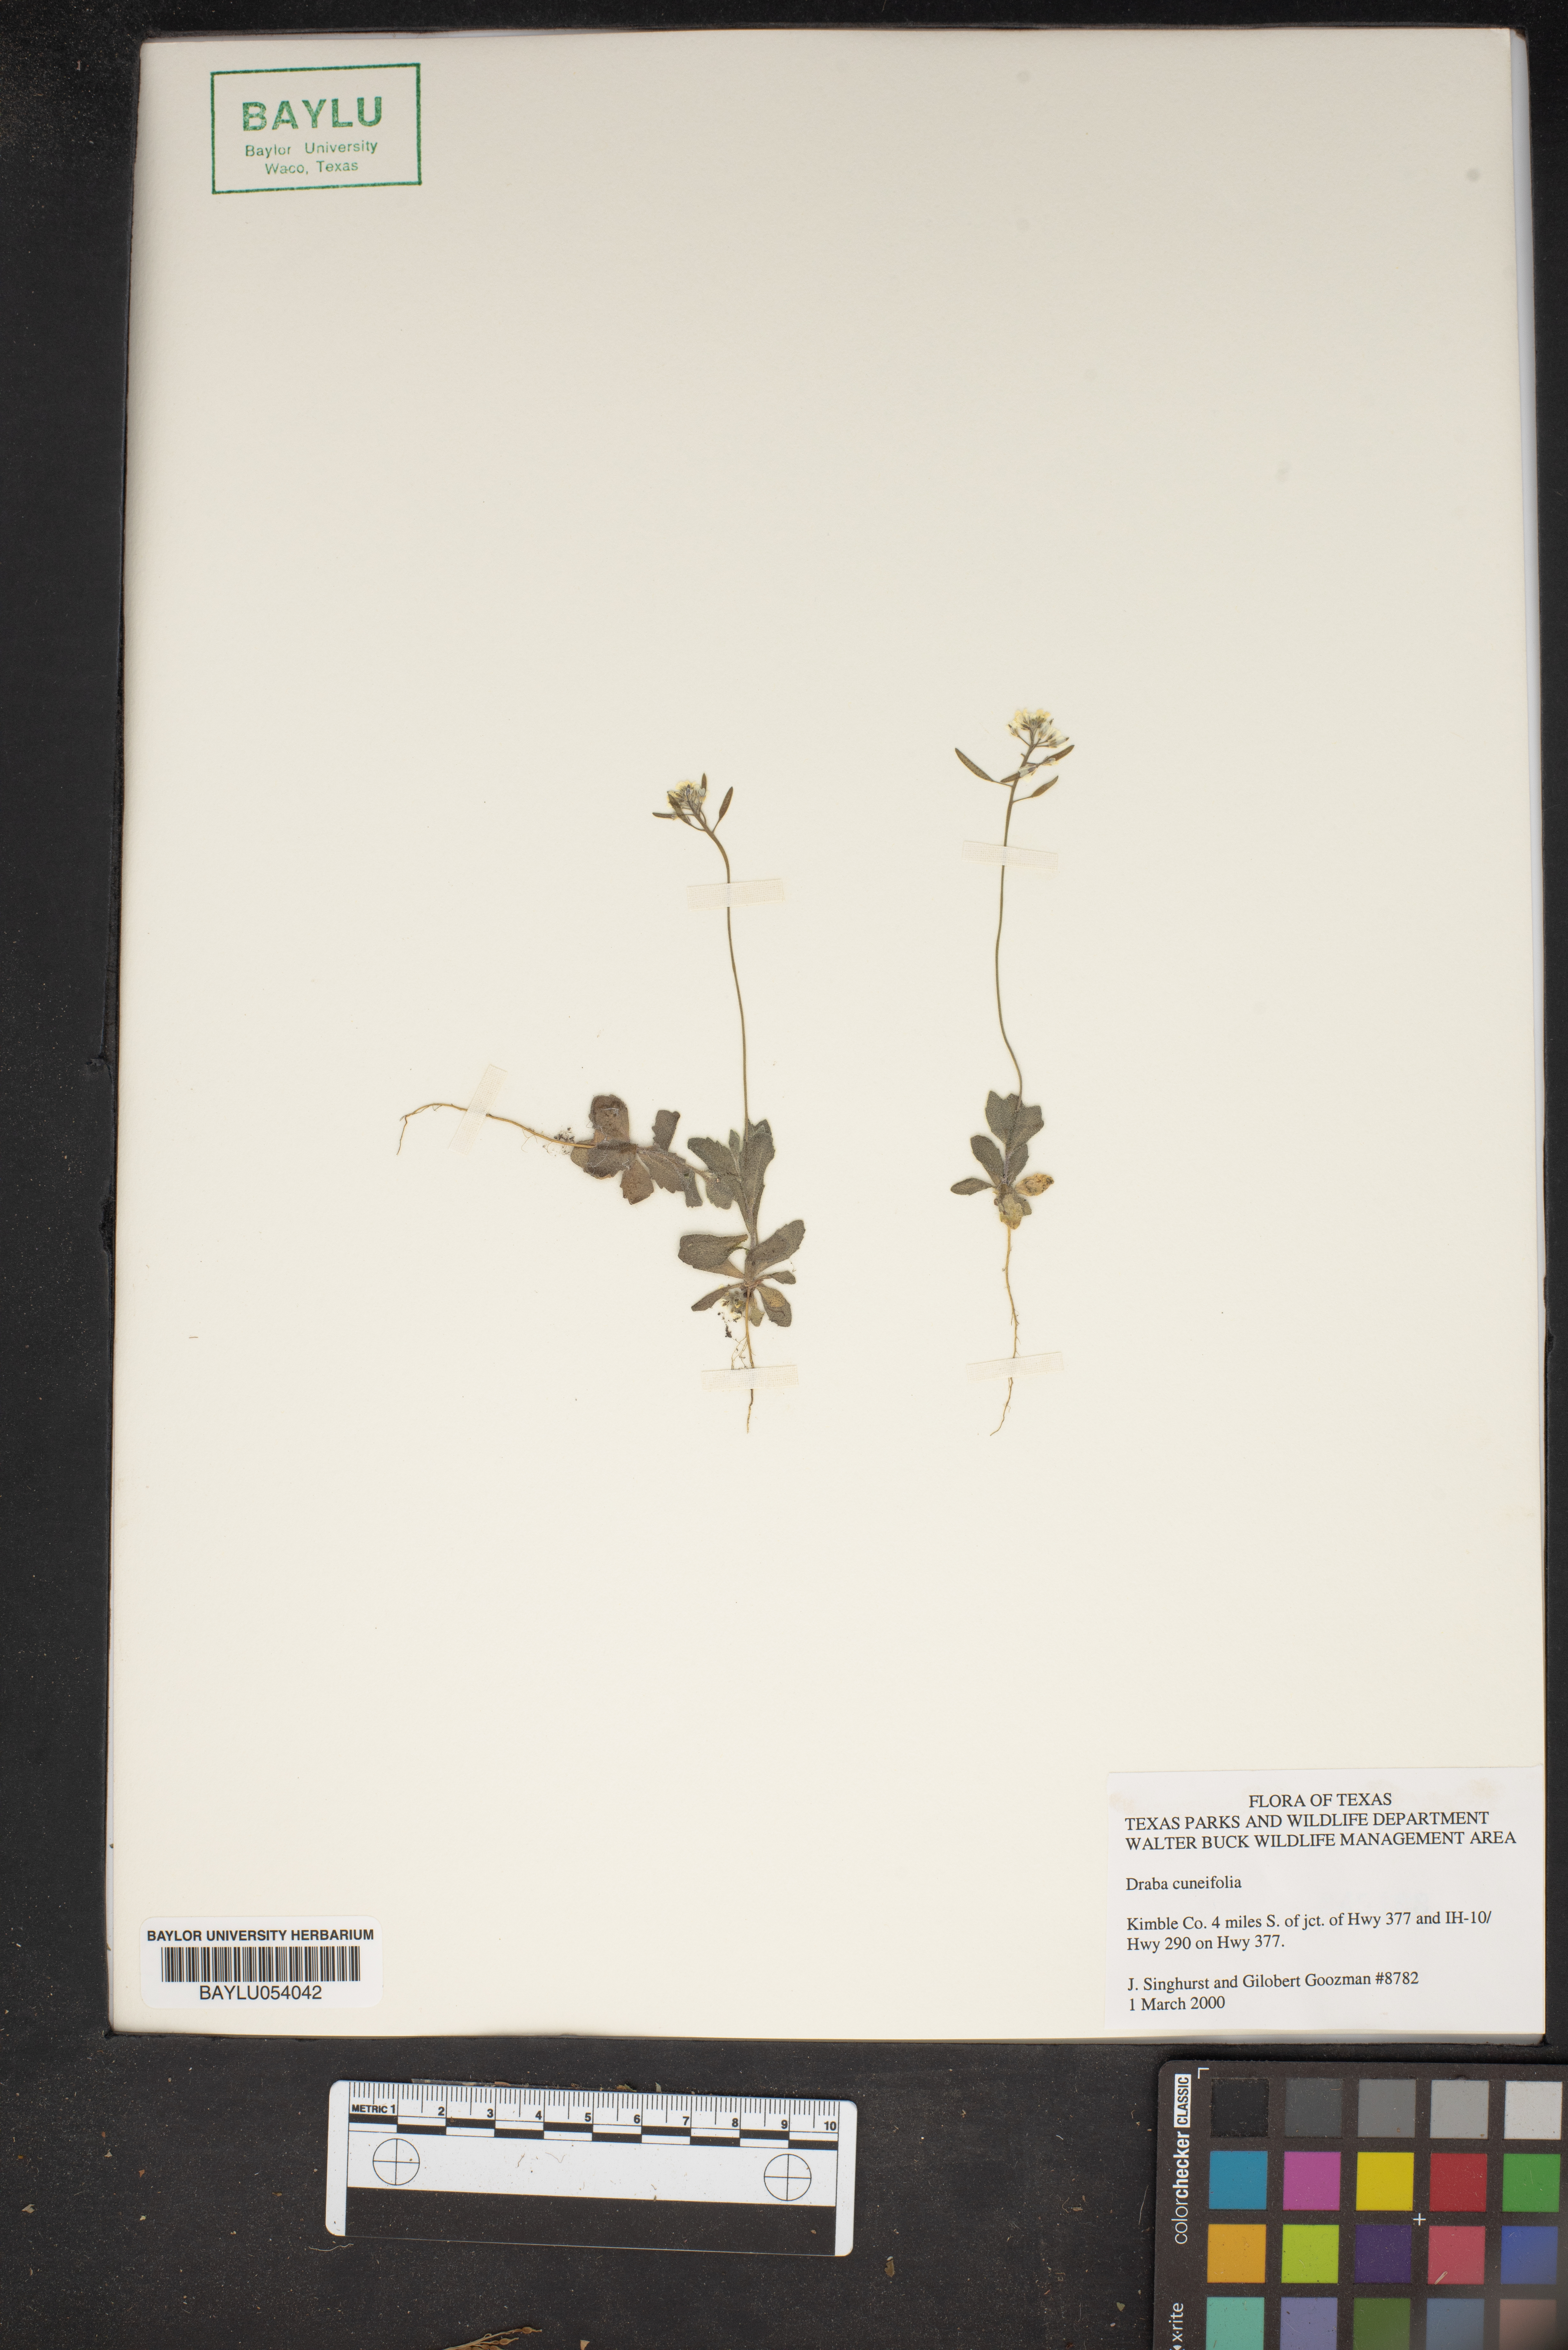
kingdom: Plantae
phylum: Tracheophyta
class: Magnoliopsida
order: Brassicales
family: Brassicaceae
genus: Tomostima
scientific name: Tomostima cuneifolia
